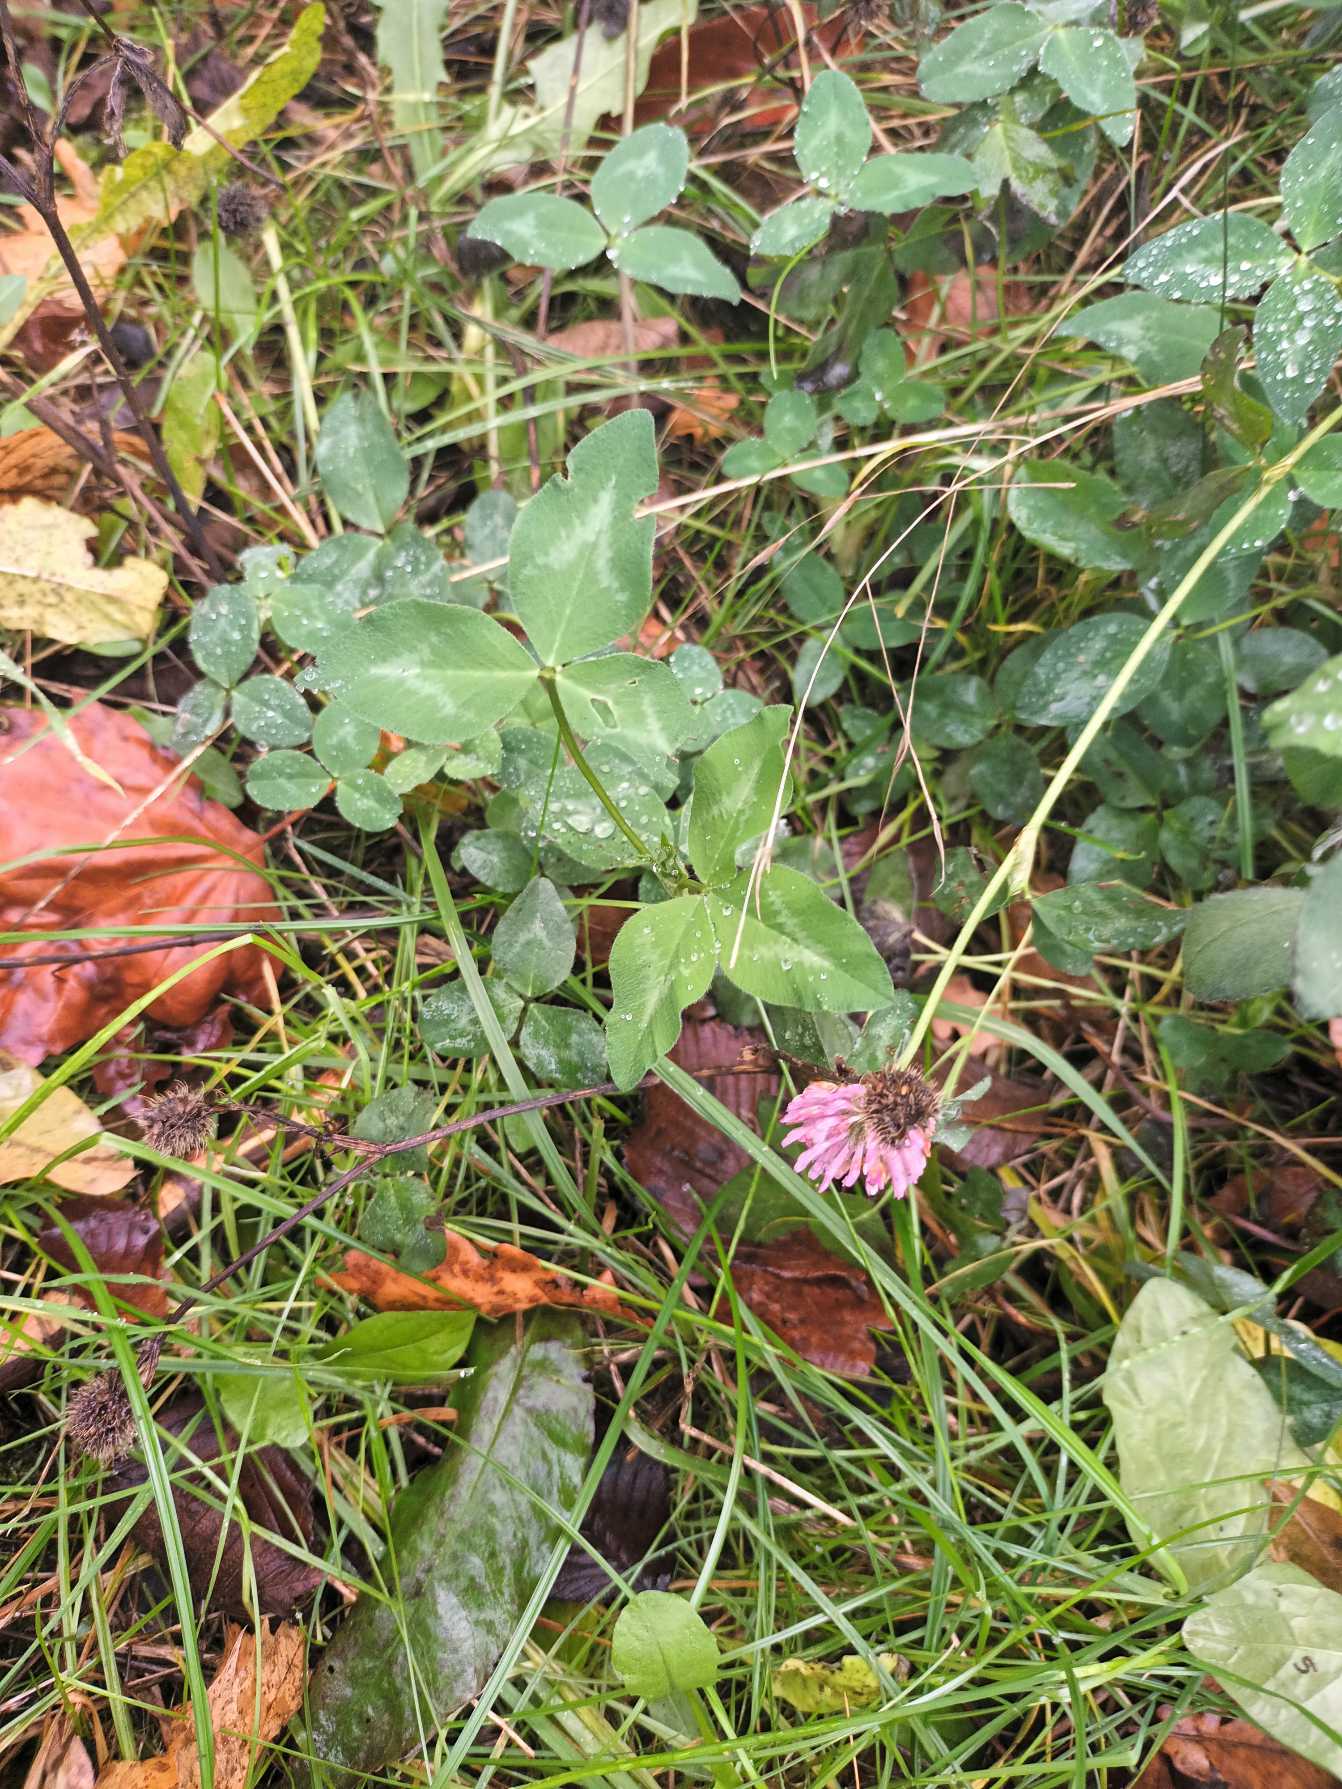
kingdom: Plantae
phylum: Tracheophyta
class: Magnoliopsida
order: Fabales
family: Fabaceae
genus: Trifolium
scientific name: Trifolium pratense
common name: Rød-kløver
